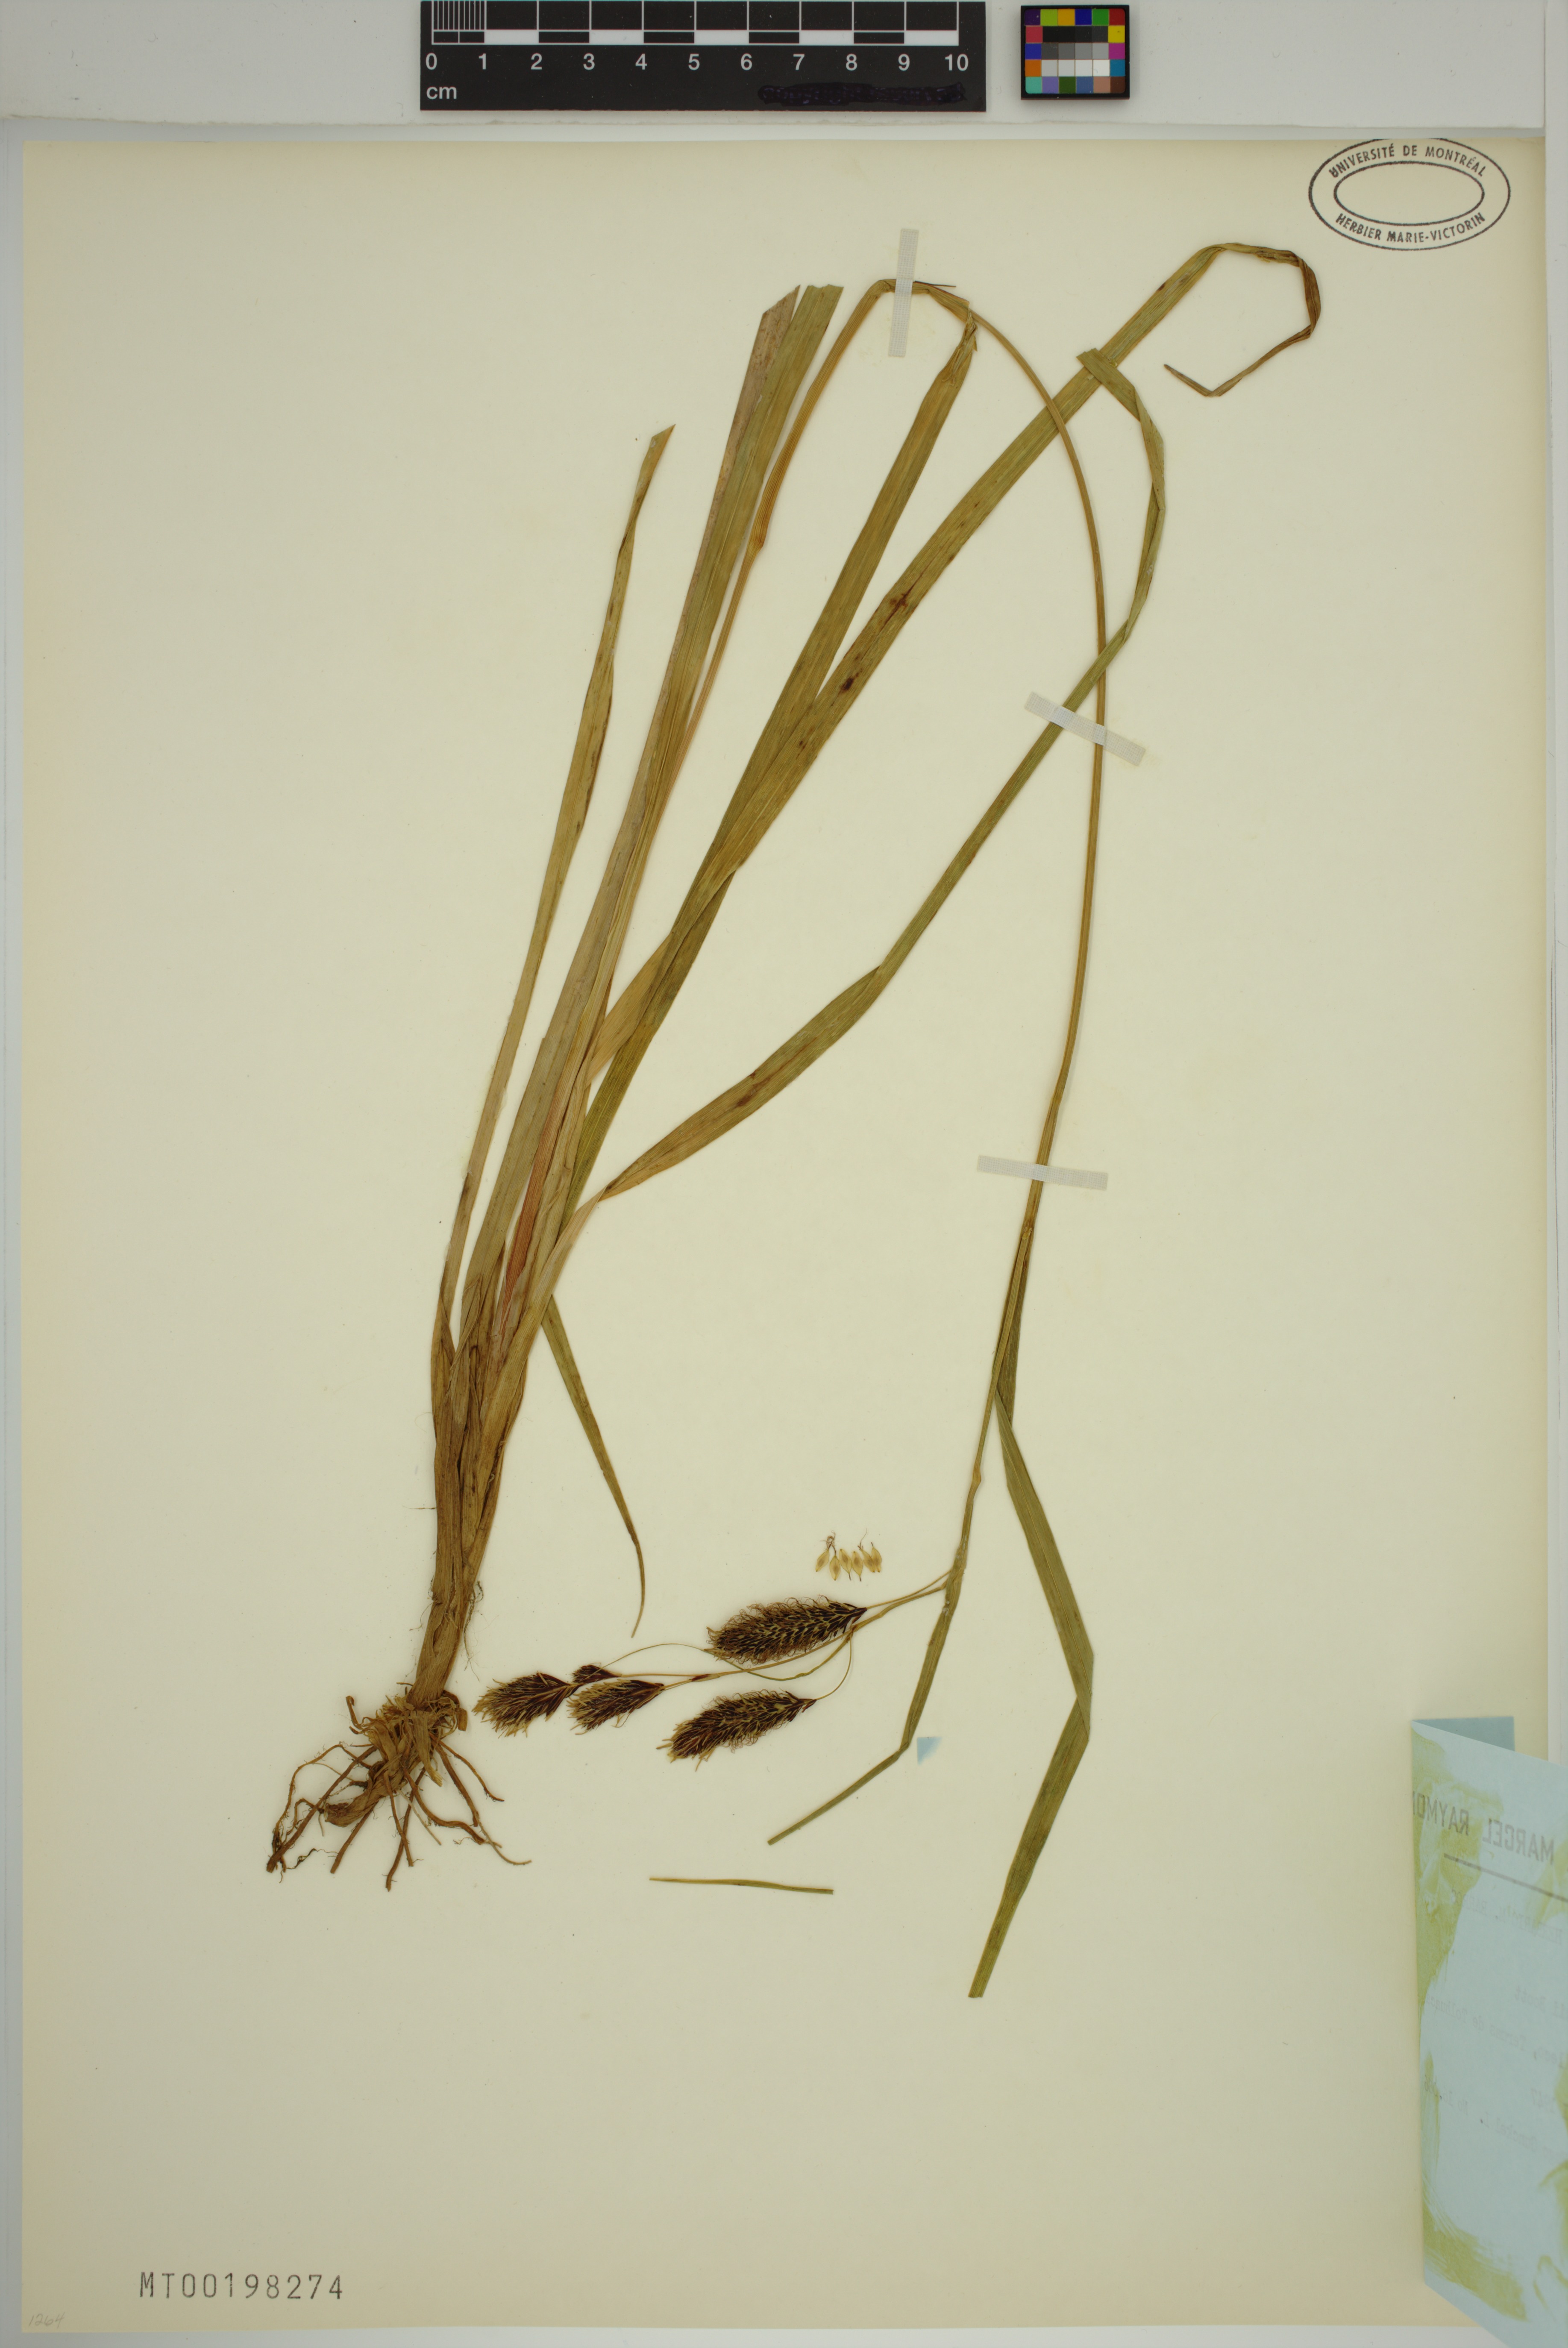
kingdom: Plantae
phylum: Tracheophyta
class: Liliopsida
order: Poales
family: Cyperaceae
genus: Carex
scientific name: Carex banksii
